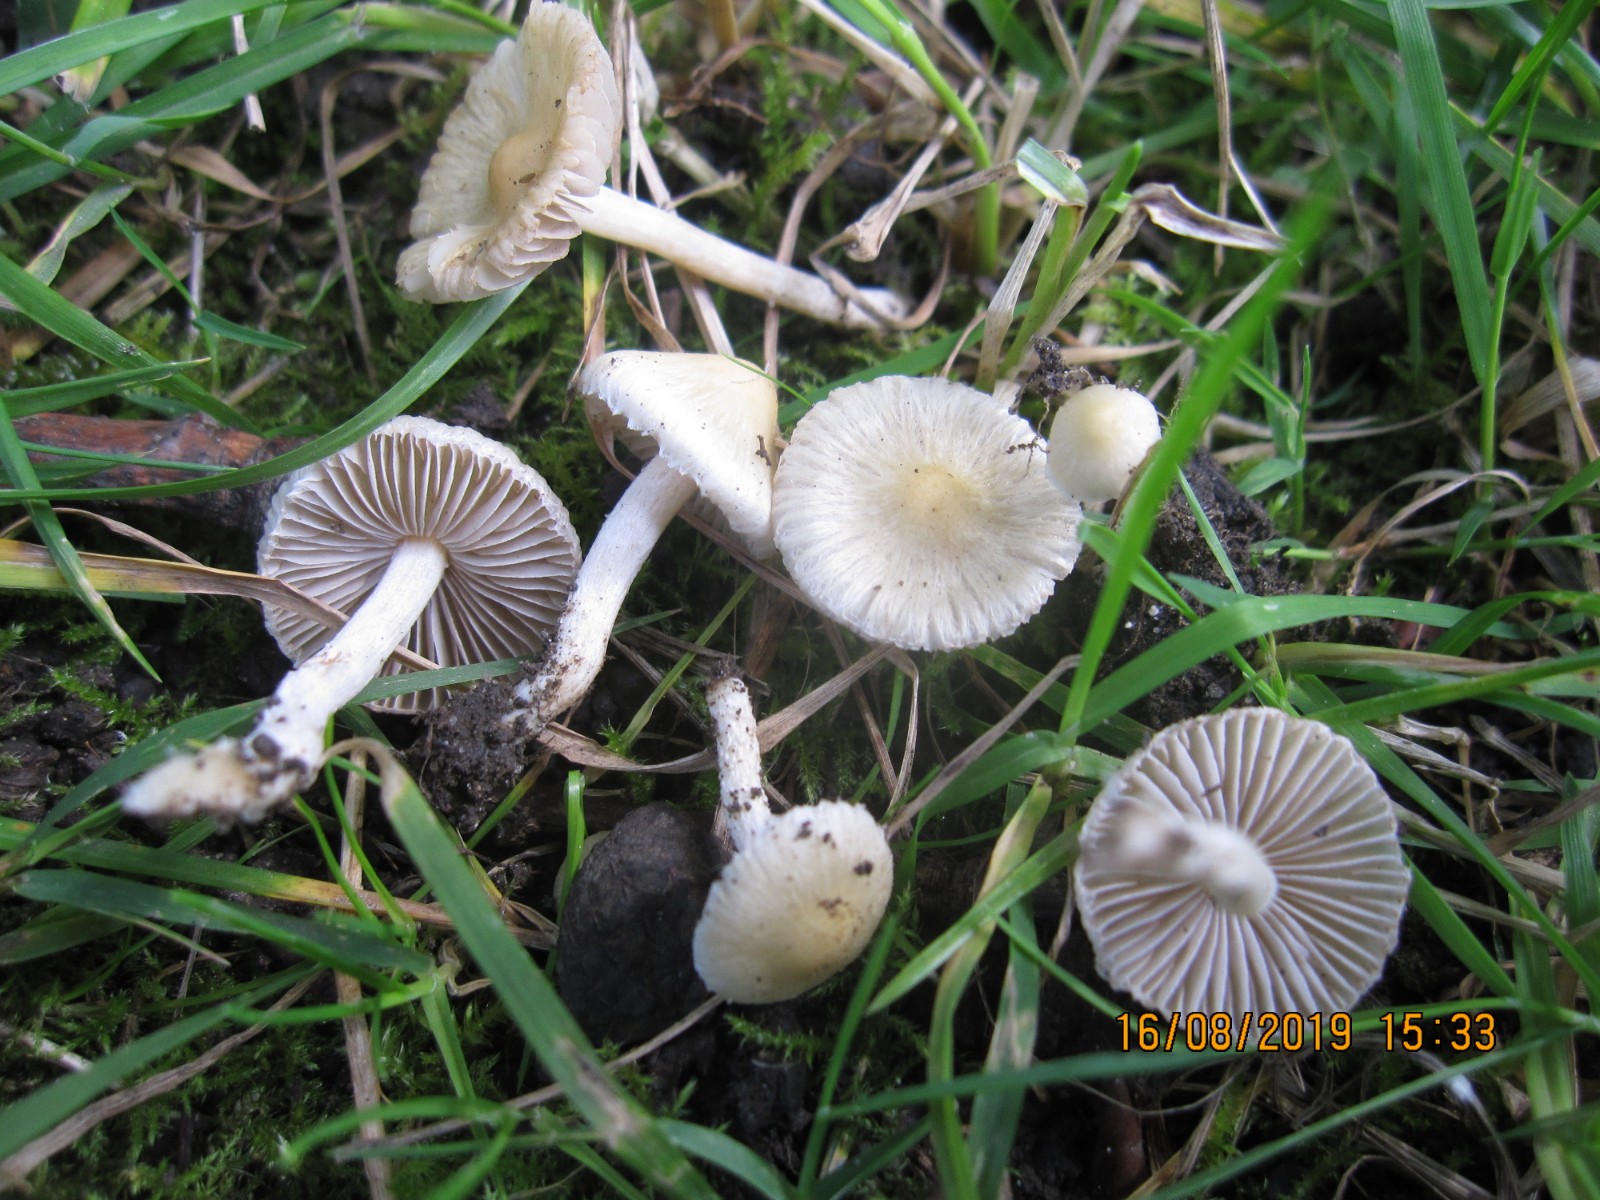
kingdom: Fungi
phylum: Basidiomycota
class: Agaricomycetes
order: Agaricales
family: Inocybaceae
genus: Inocybe
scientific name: Inocybe
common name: trævlhat
